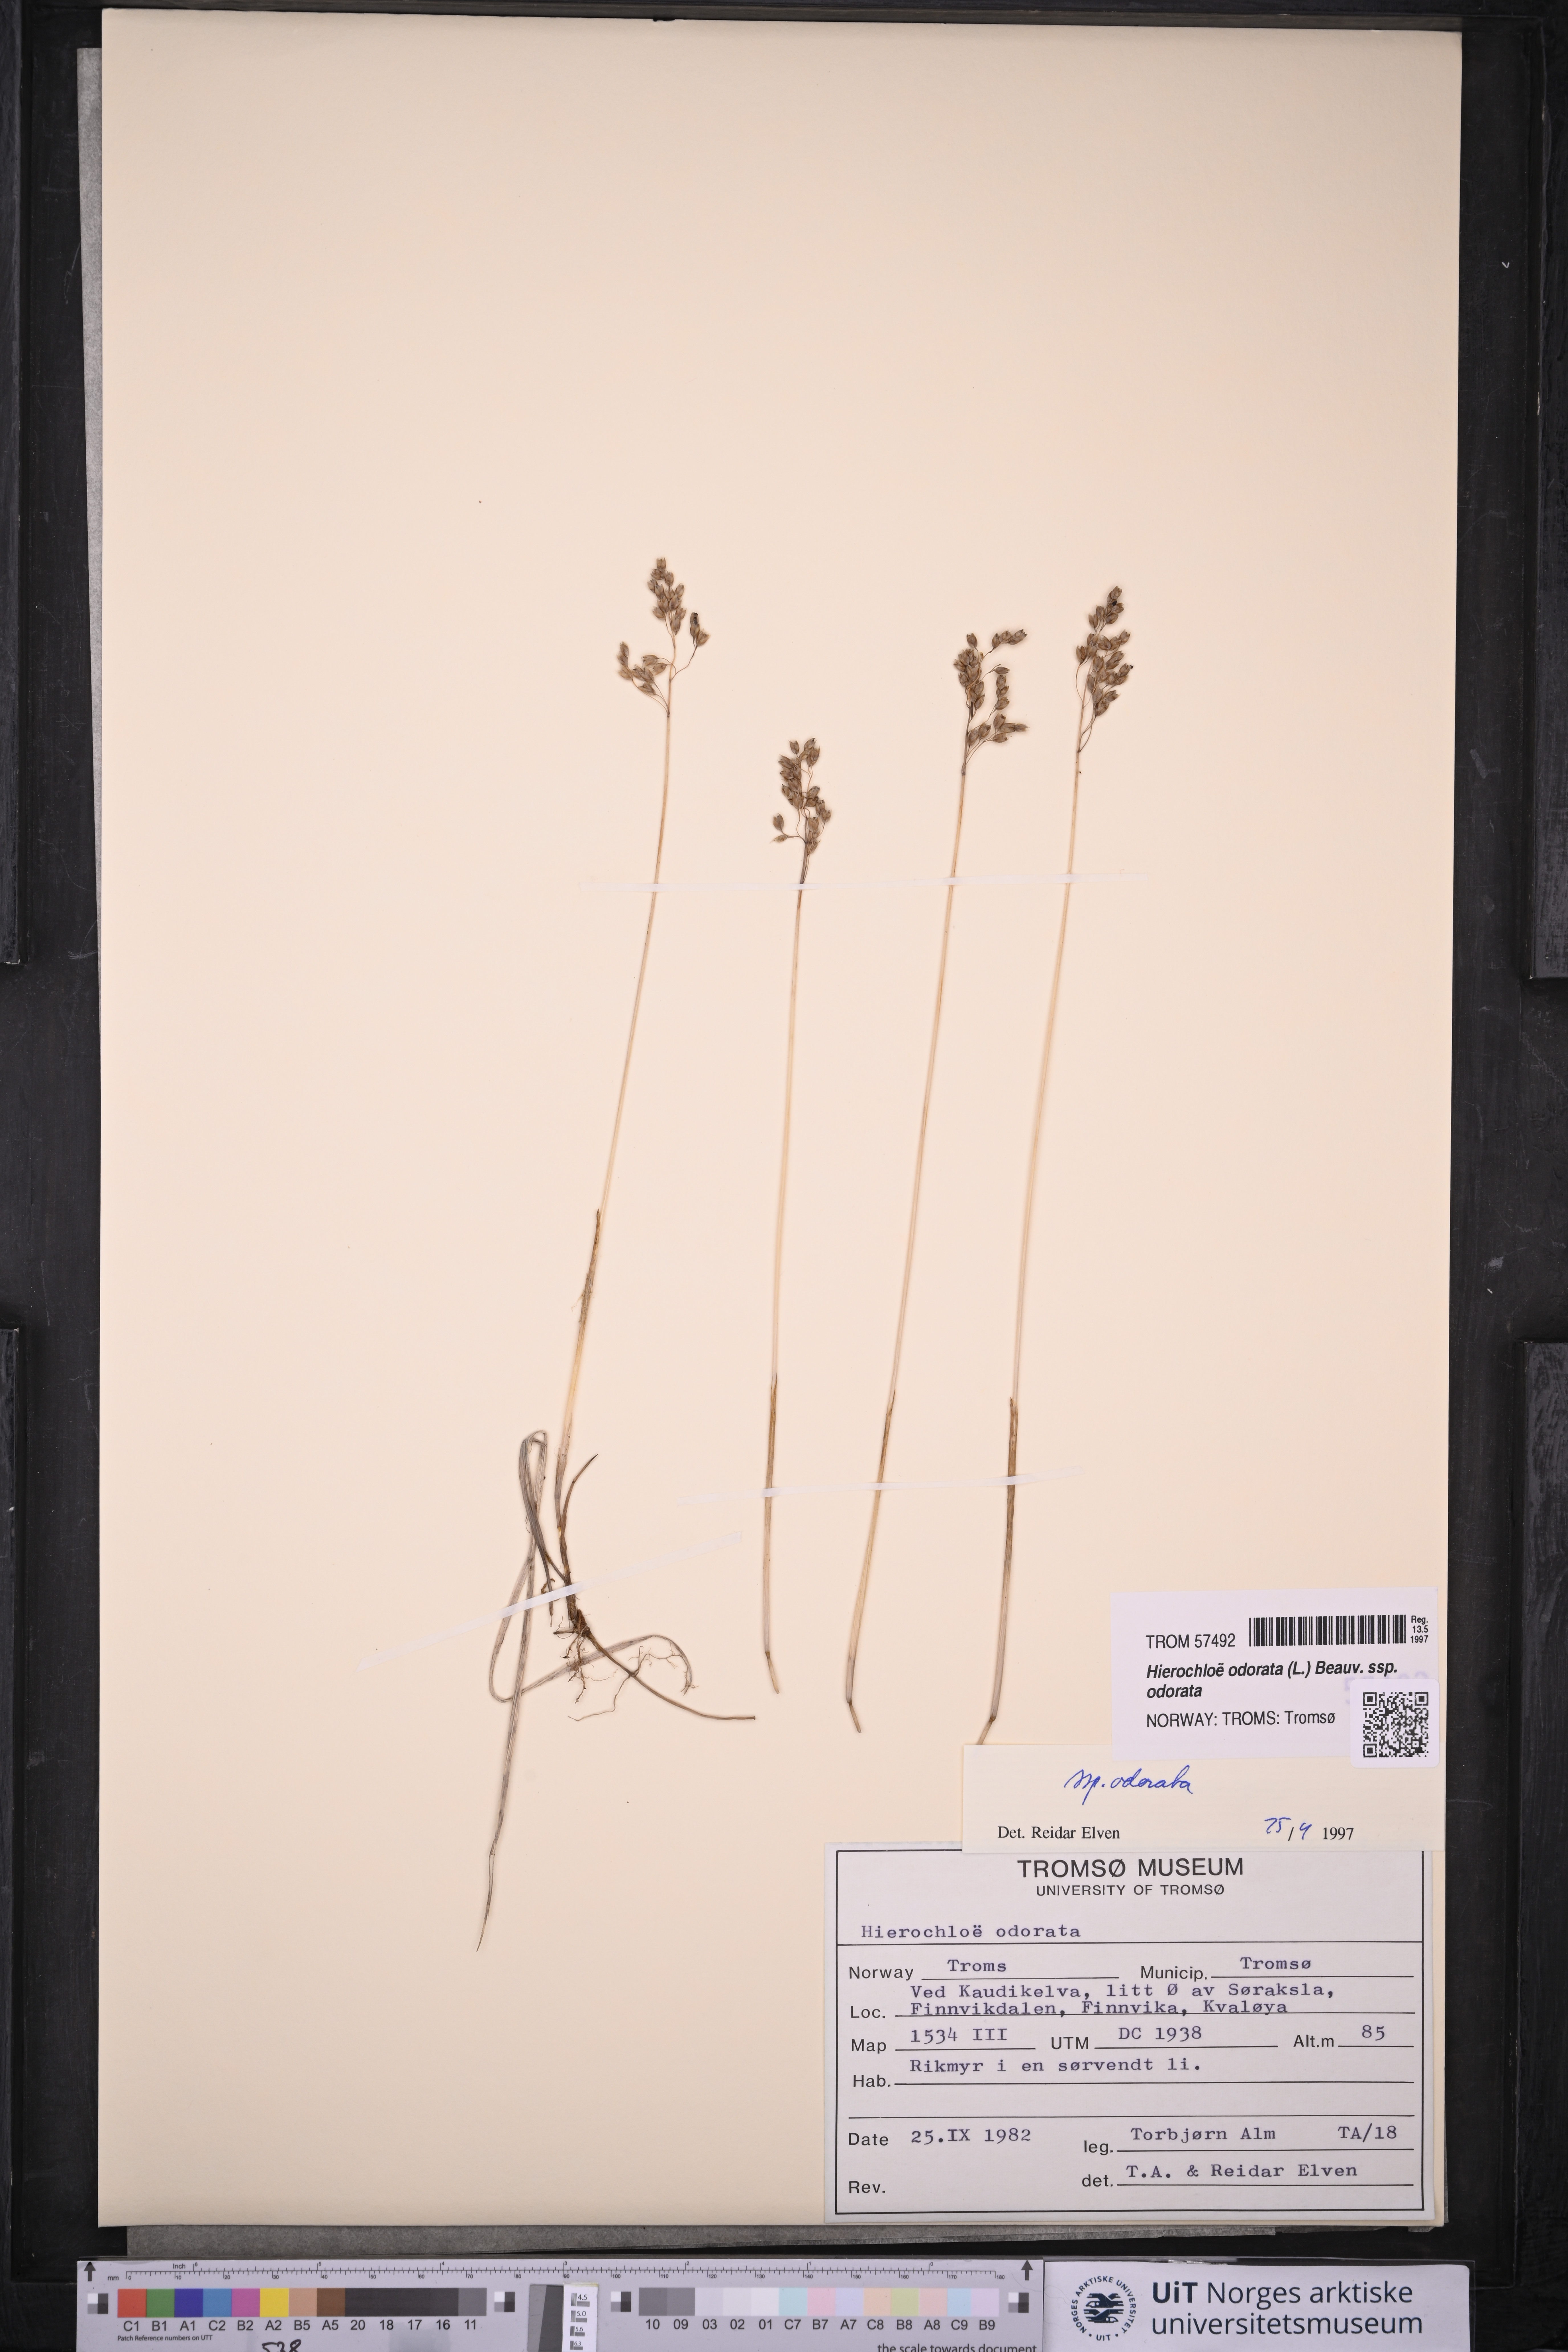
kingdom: Plantae
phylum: Tracheophyta
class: Liliopsida
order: Poales
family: Poaceae
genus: Anthoxanthum
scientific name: Anthoxanthum nitens
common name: Holy grass
